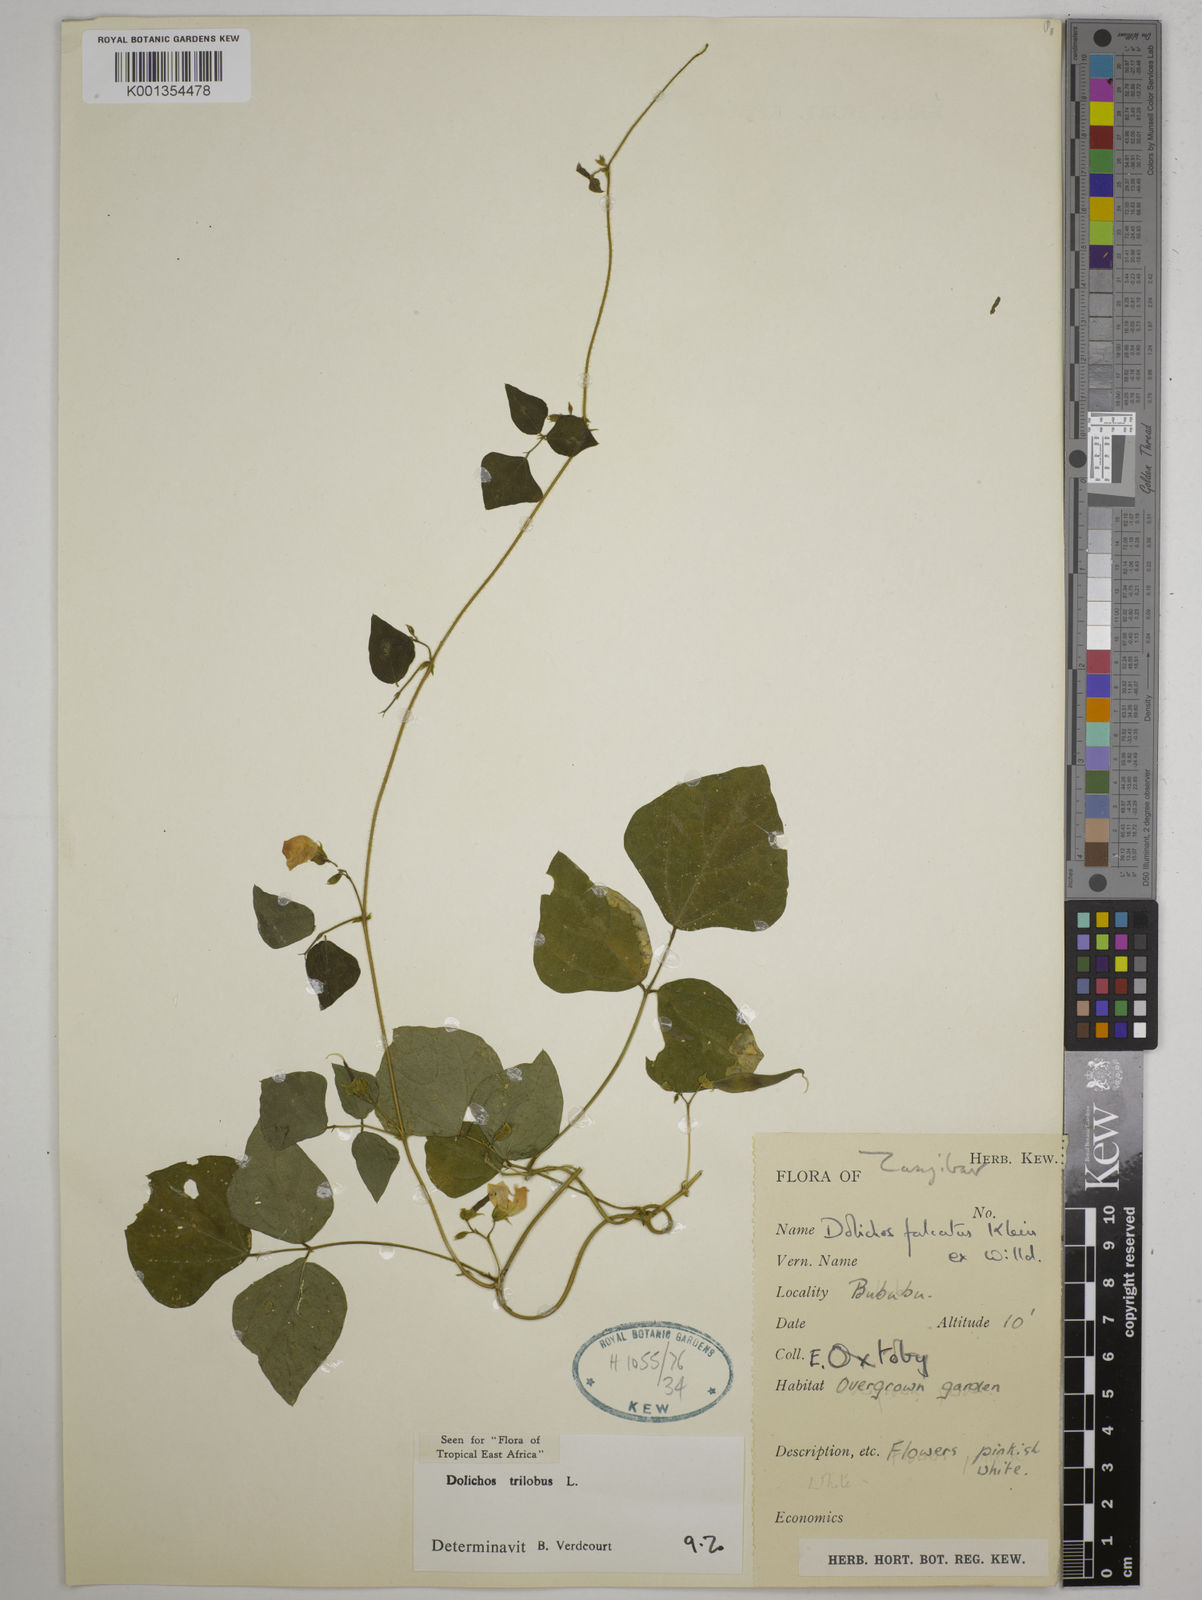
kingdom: Plantae
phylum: Tracheophyta
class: Magnoliopsida
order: Fabales
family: Fabaceae
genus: Dolichos
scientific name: Dolichos
